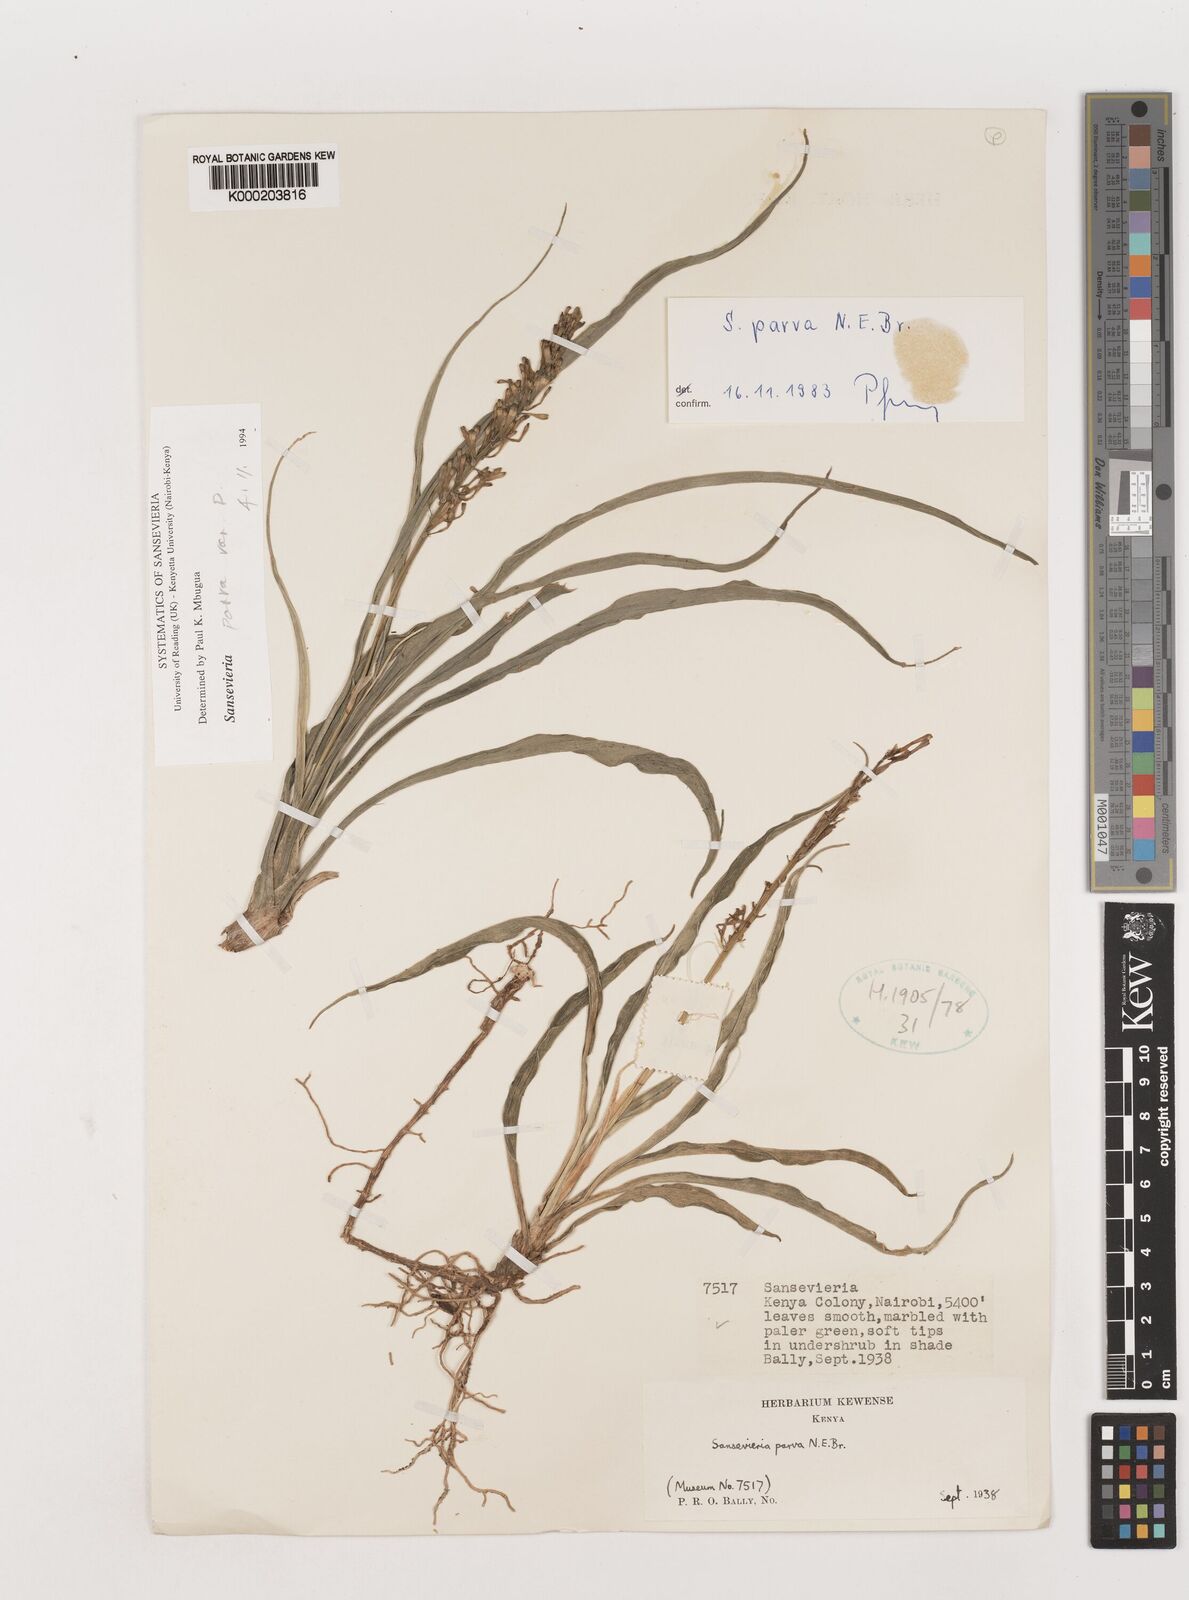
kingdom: Plantae
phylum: Tracheophyta
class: Liliopsida
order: Asparagales
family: Asparagaceae
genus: Dracaena
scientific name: Dracaena parva
